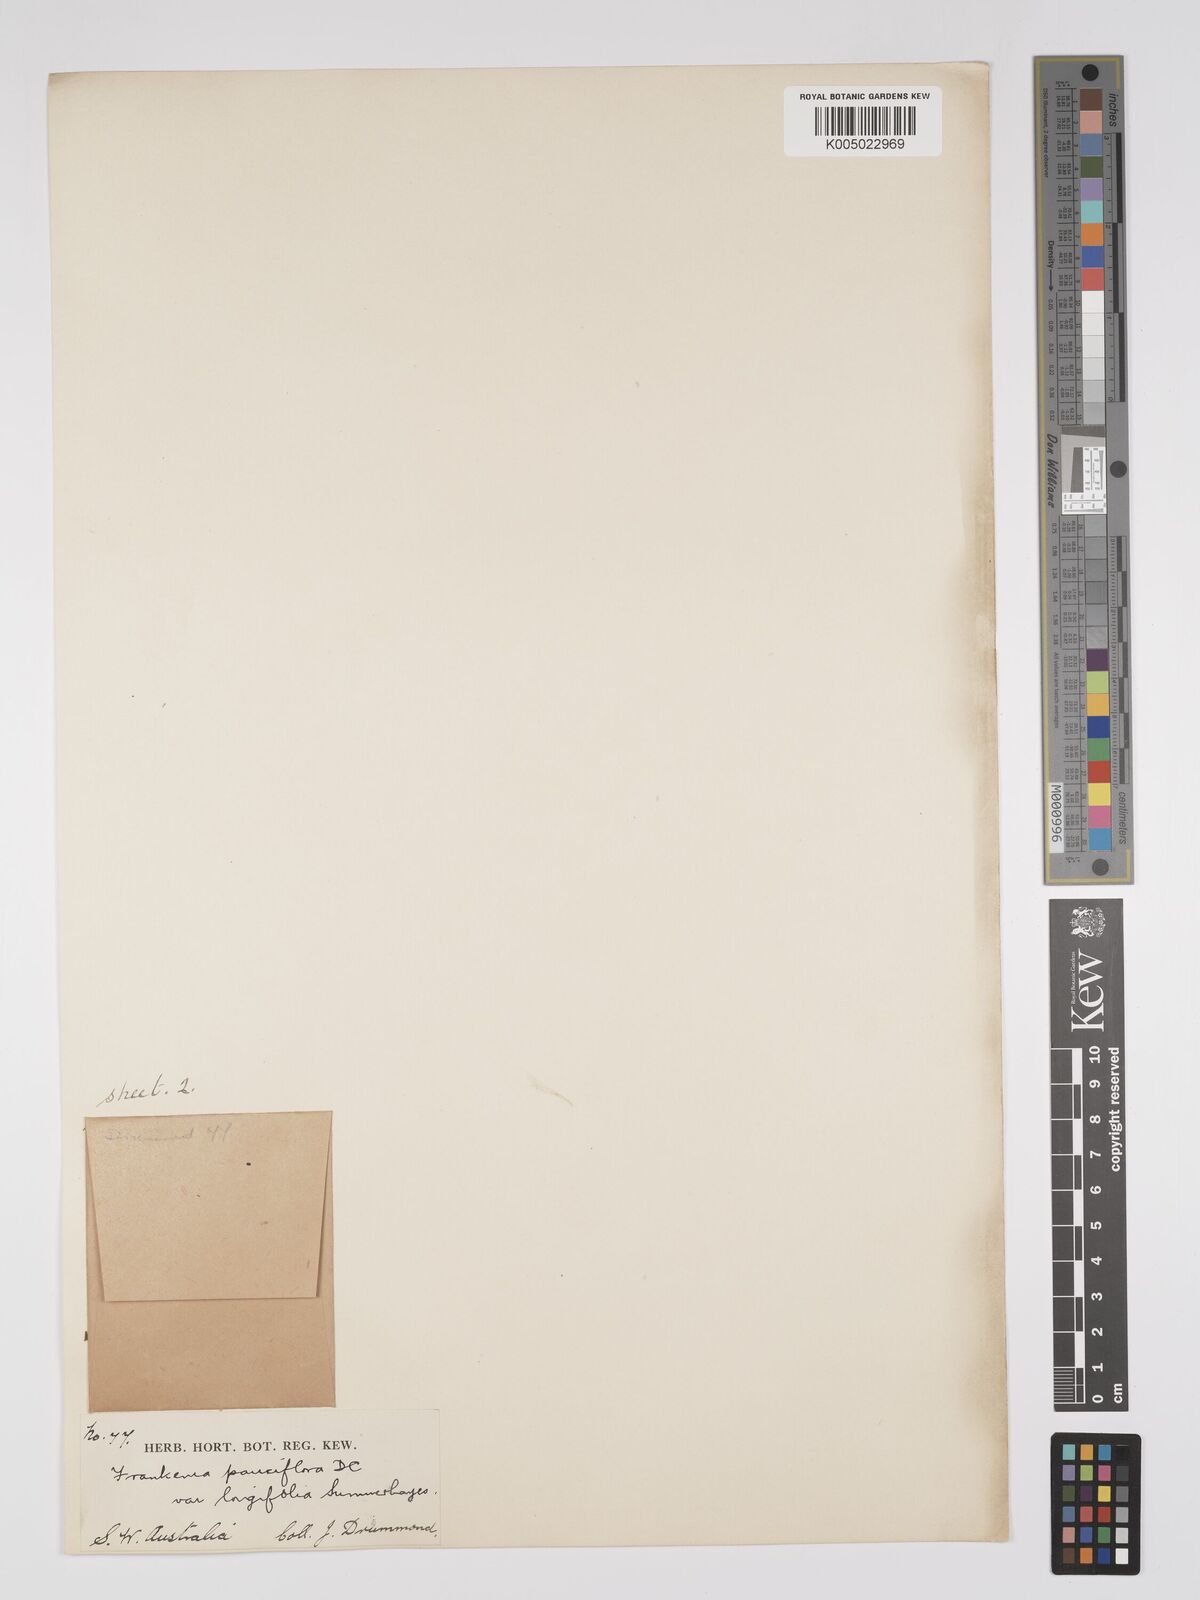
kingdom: Plantae
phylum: Tracheophyta
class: Magnoliopsida
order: Caryophyllales
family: Frankeniaceae
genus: Frankenia
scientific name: Frankenia pauciflora
